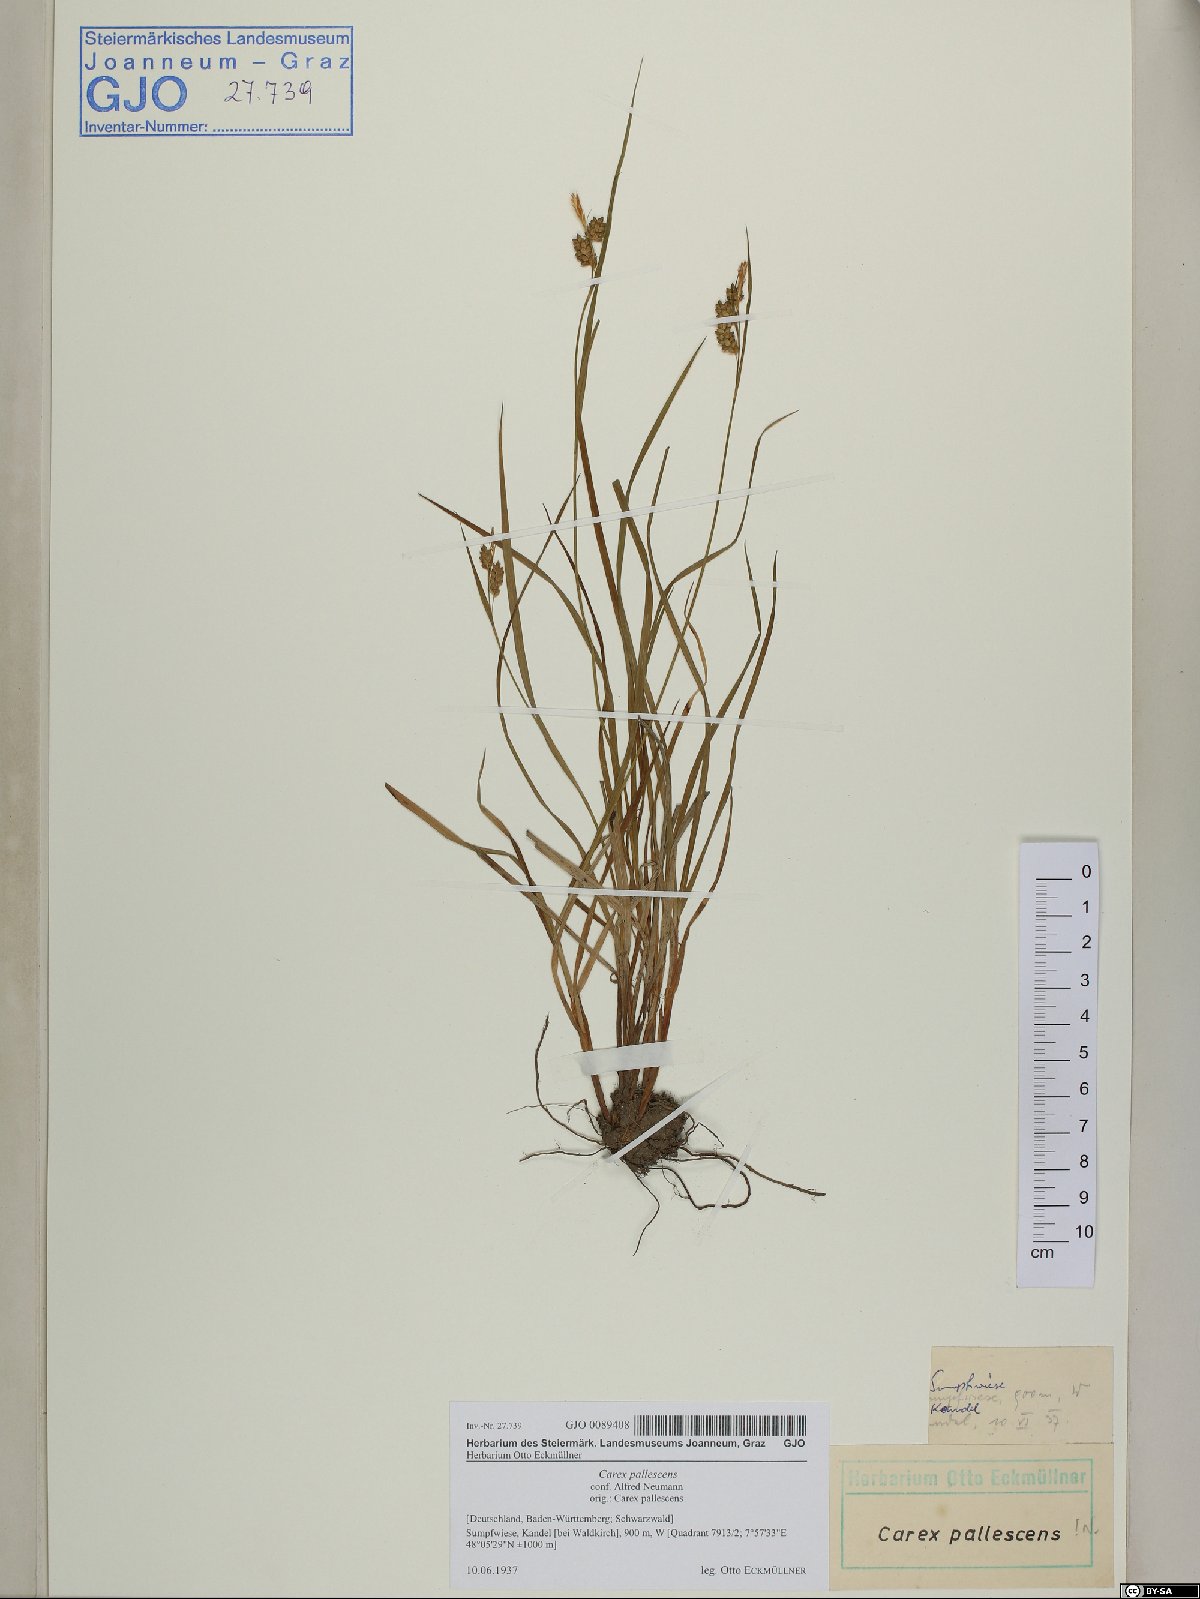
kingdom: Plantae
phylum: Tracheophyta
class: Liliopsida
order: Poales
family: Cyperaceae
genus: Carex
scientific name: Carex pallescens
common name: Pale sedge
